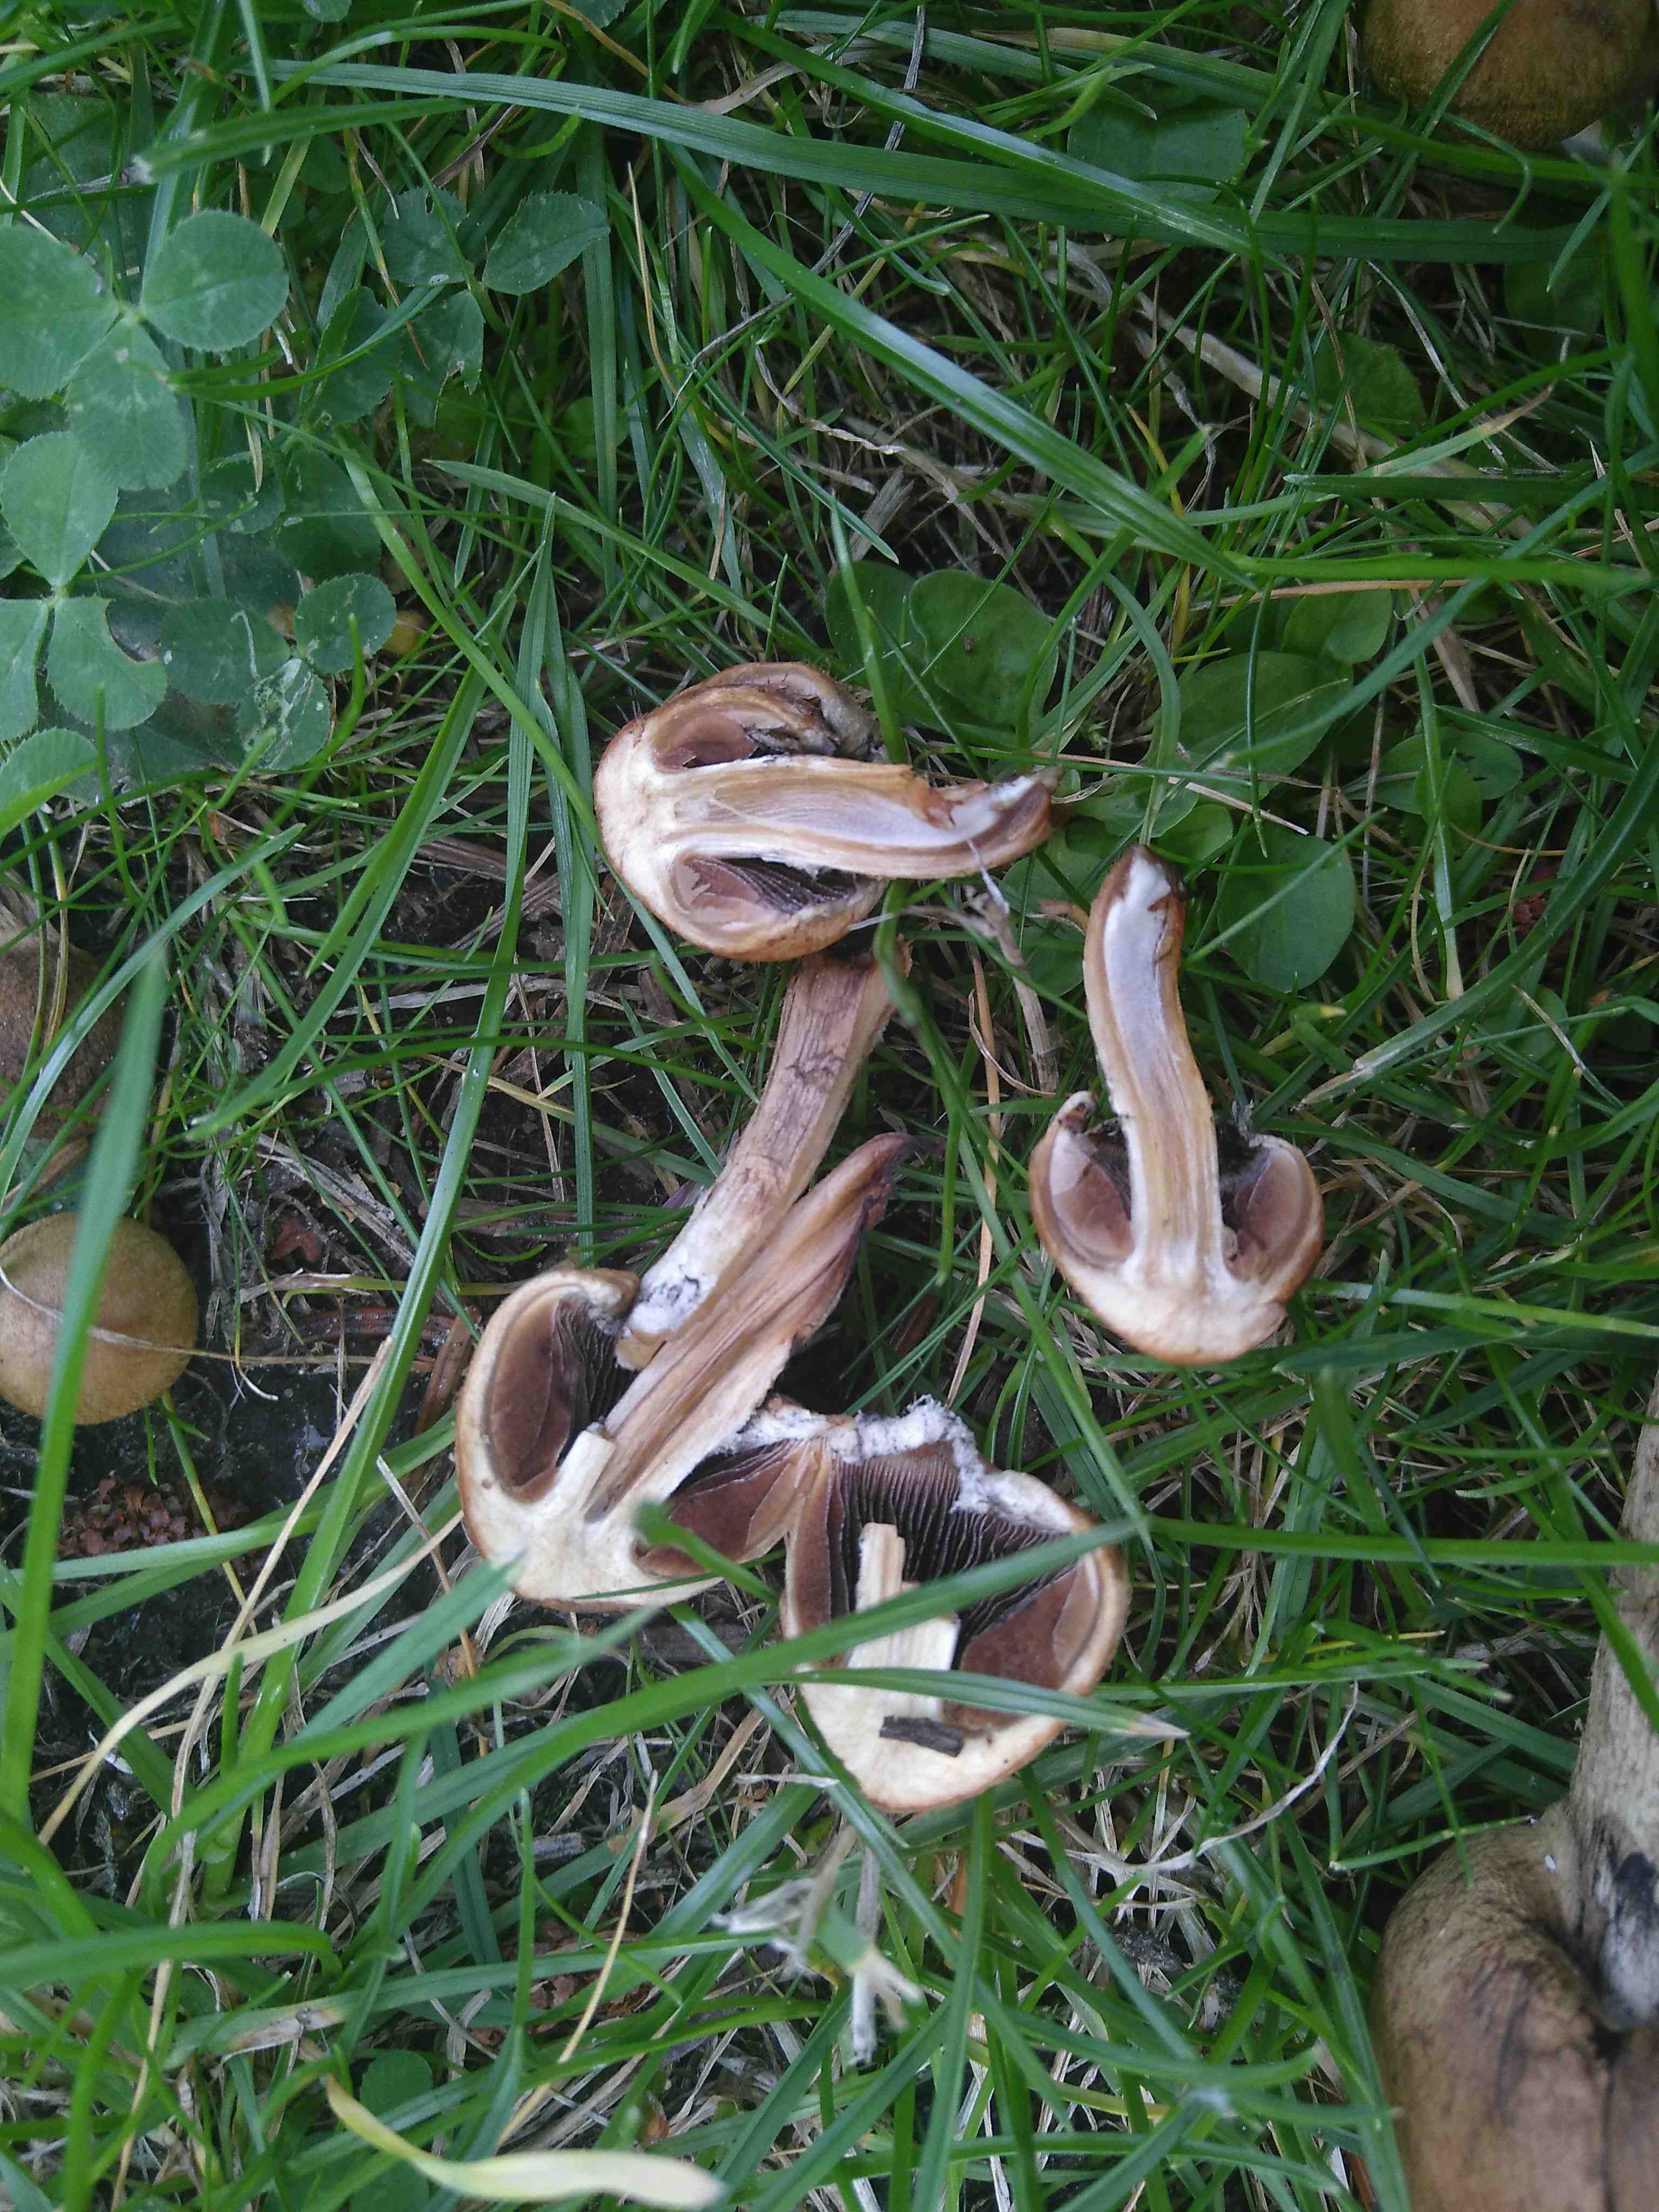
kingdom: Fungi
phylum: Basidiomycota
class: Agaricomycetes
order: Agaricales
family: Psathyrellaceae
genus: Lacrymaria
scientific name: Lacrymaria lacrymabunda
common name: grædende mørkhat
